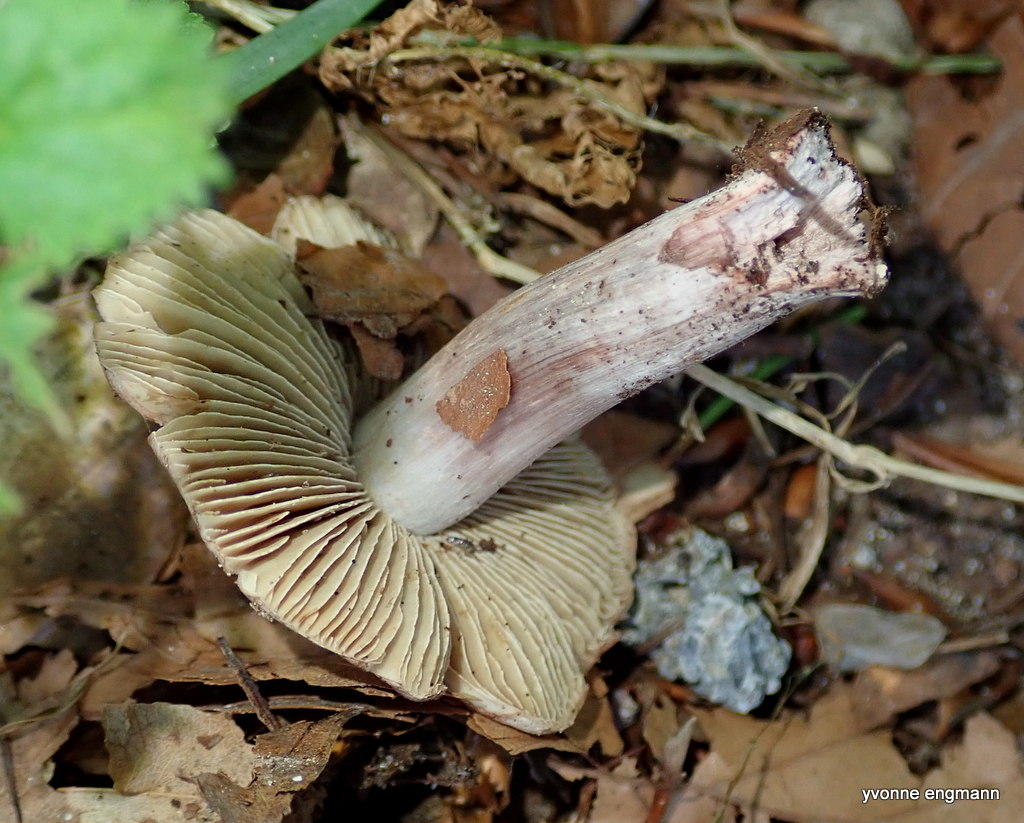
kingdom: Fungi
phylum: Basidiomycota
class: Agaricomycetes
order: Agaricales
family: Inocybaceae
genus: Inosperma
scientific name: Inosperma adaequatum
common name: vinrød trævlhat
